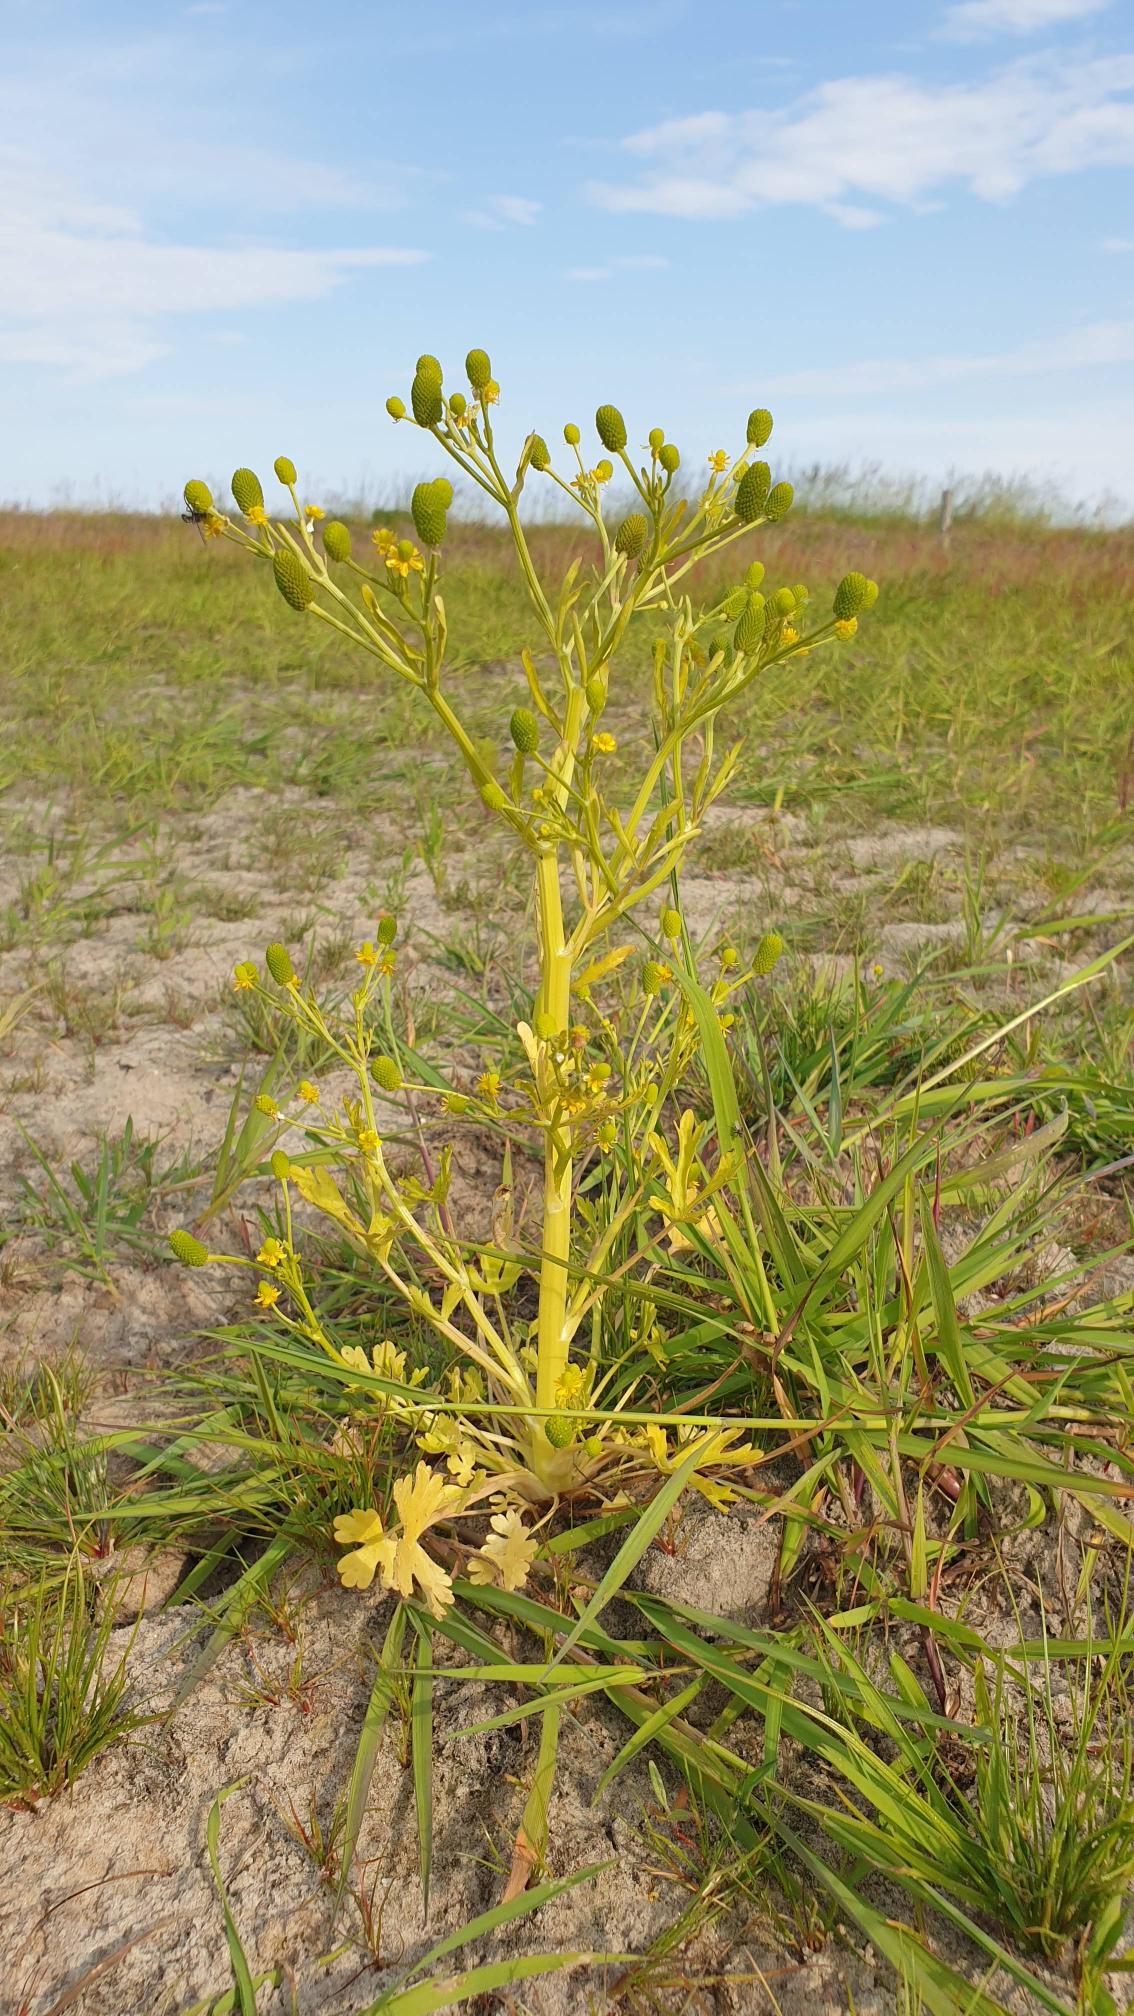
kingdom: Plantae
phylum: Tracheophyta
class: Magnoliopsida
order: Ranunculales
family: Ranunculaceae
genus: Ranunculus
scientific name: Ranunculus sceleratus
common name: Tigger-ranunkel
